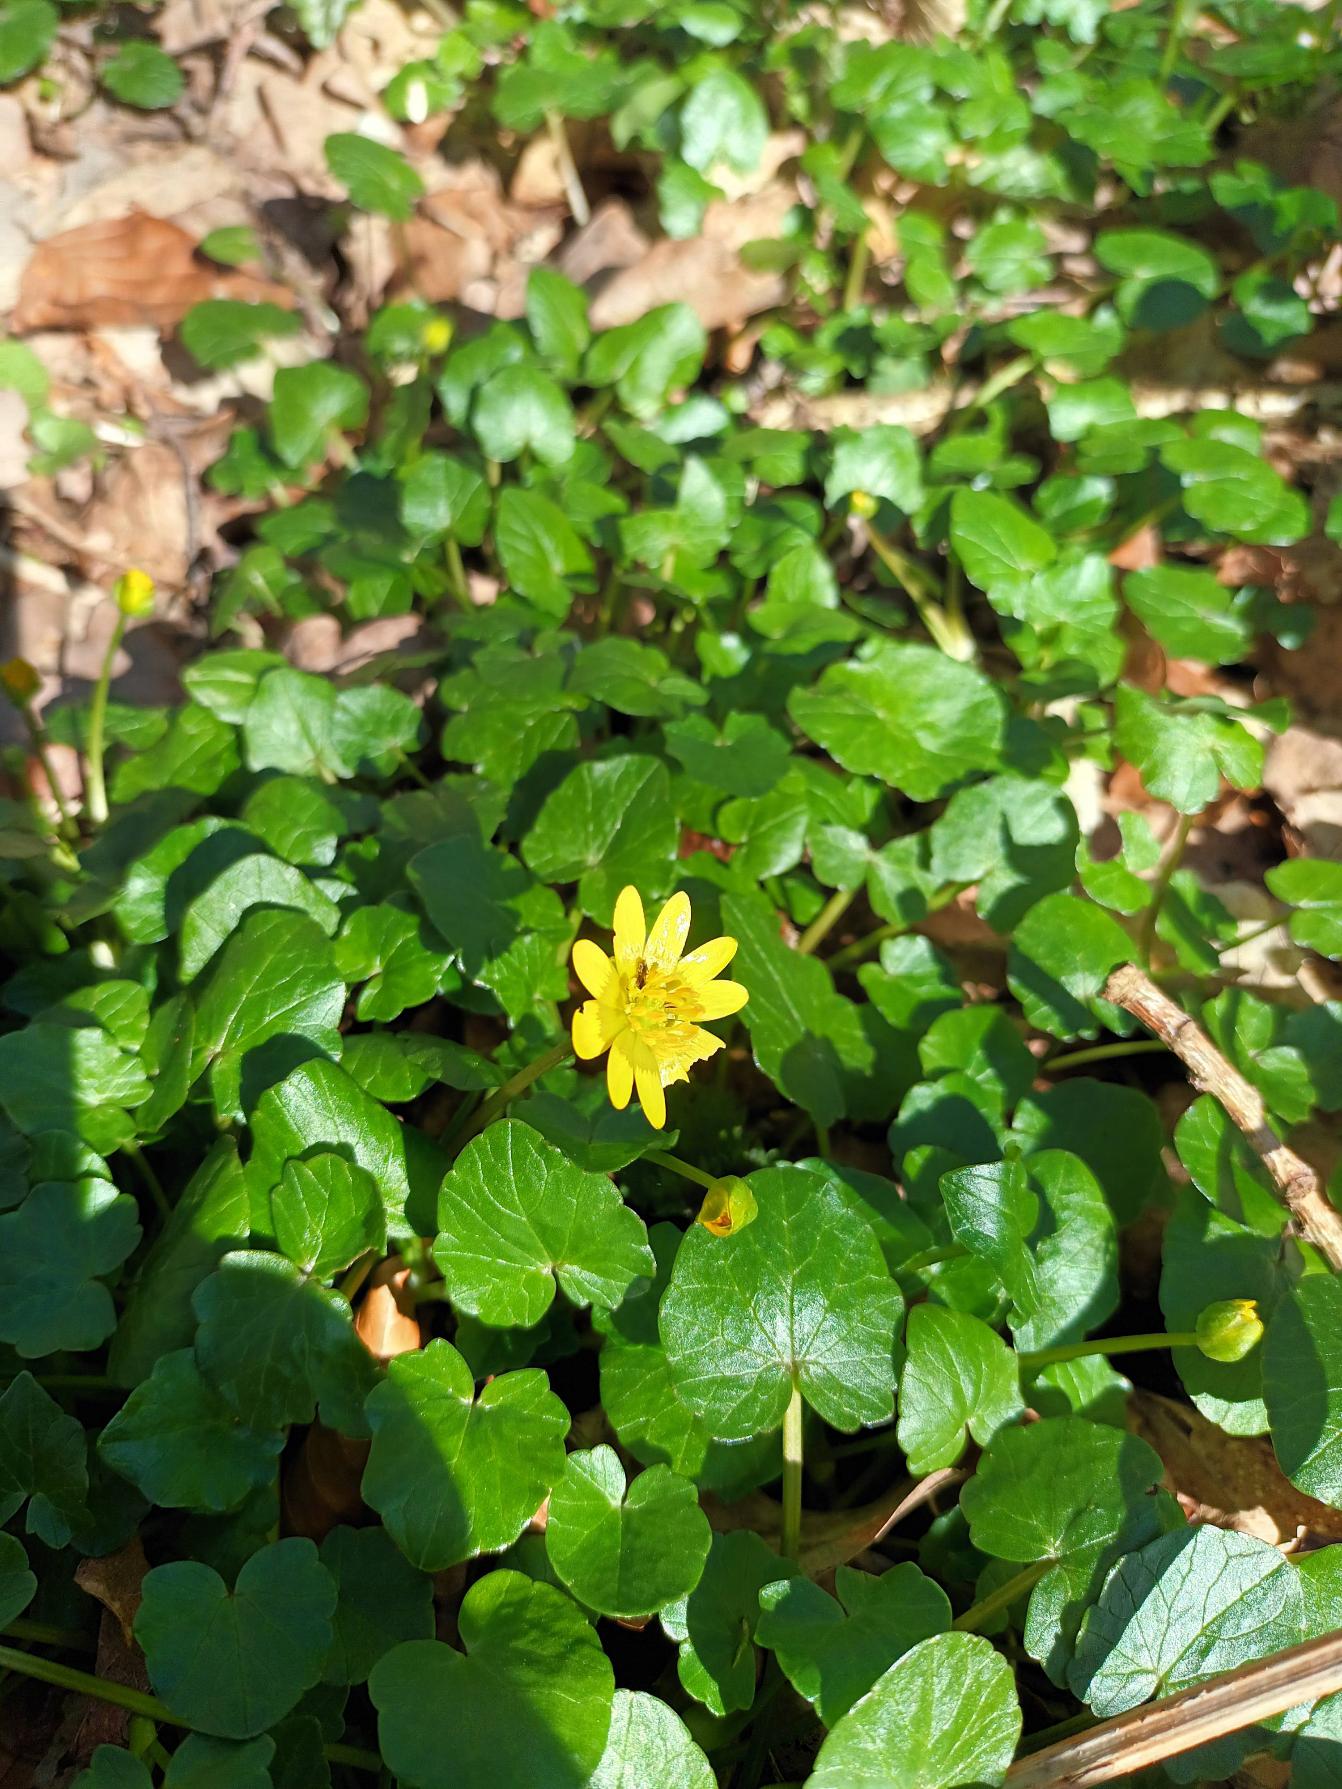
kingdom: Plantae
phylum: Tracheophyta
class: Magnoliopsida
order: Ranunculales
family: Ranunculaceae
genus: Ficaria
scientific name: Ficaria verna
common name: Vorterod
